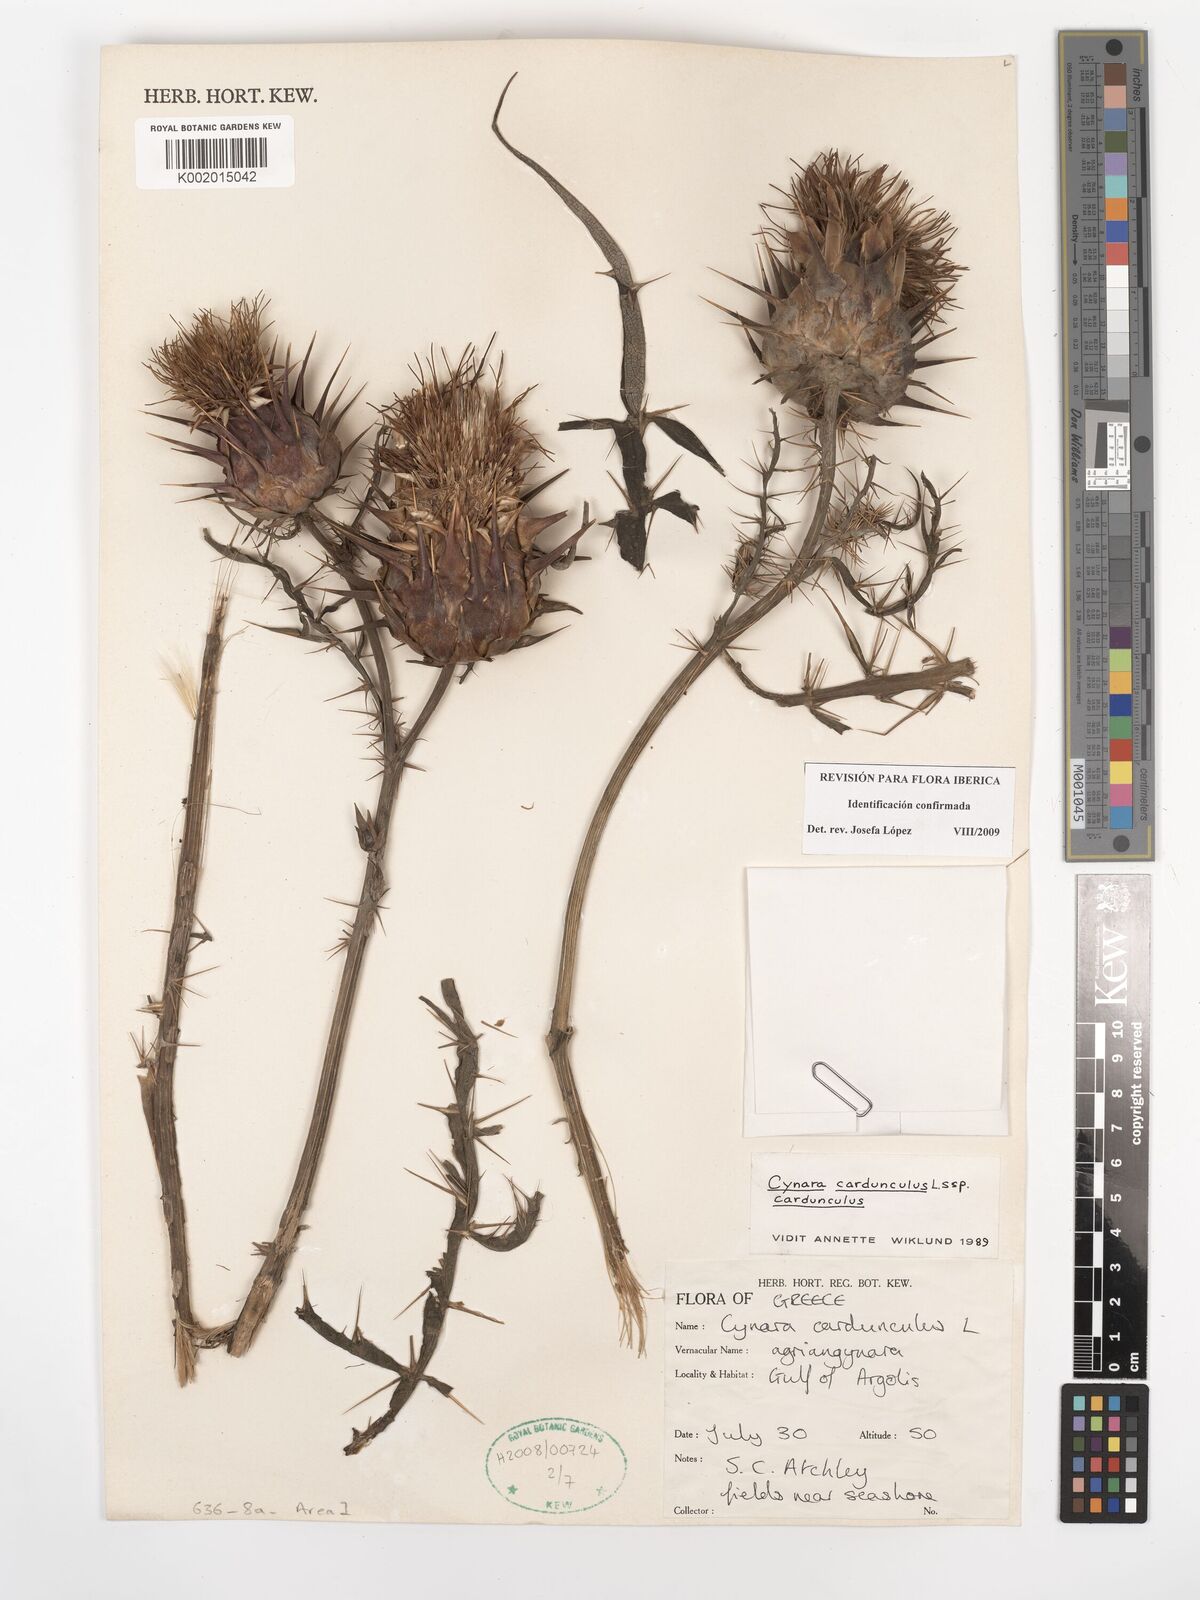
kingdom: Plantae
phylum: Tracheophyta
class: Magnoliopsida
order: Asterales
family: Asteraceae
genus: Cynara
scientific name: Cynara cardunculus
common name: Globe artichoke
